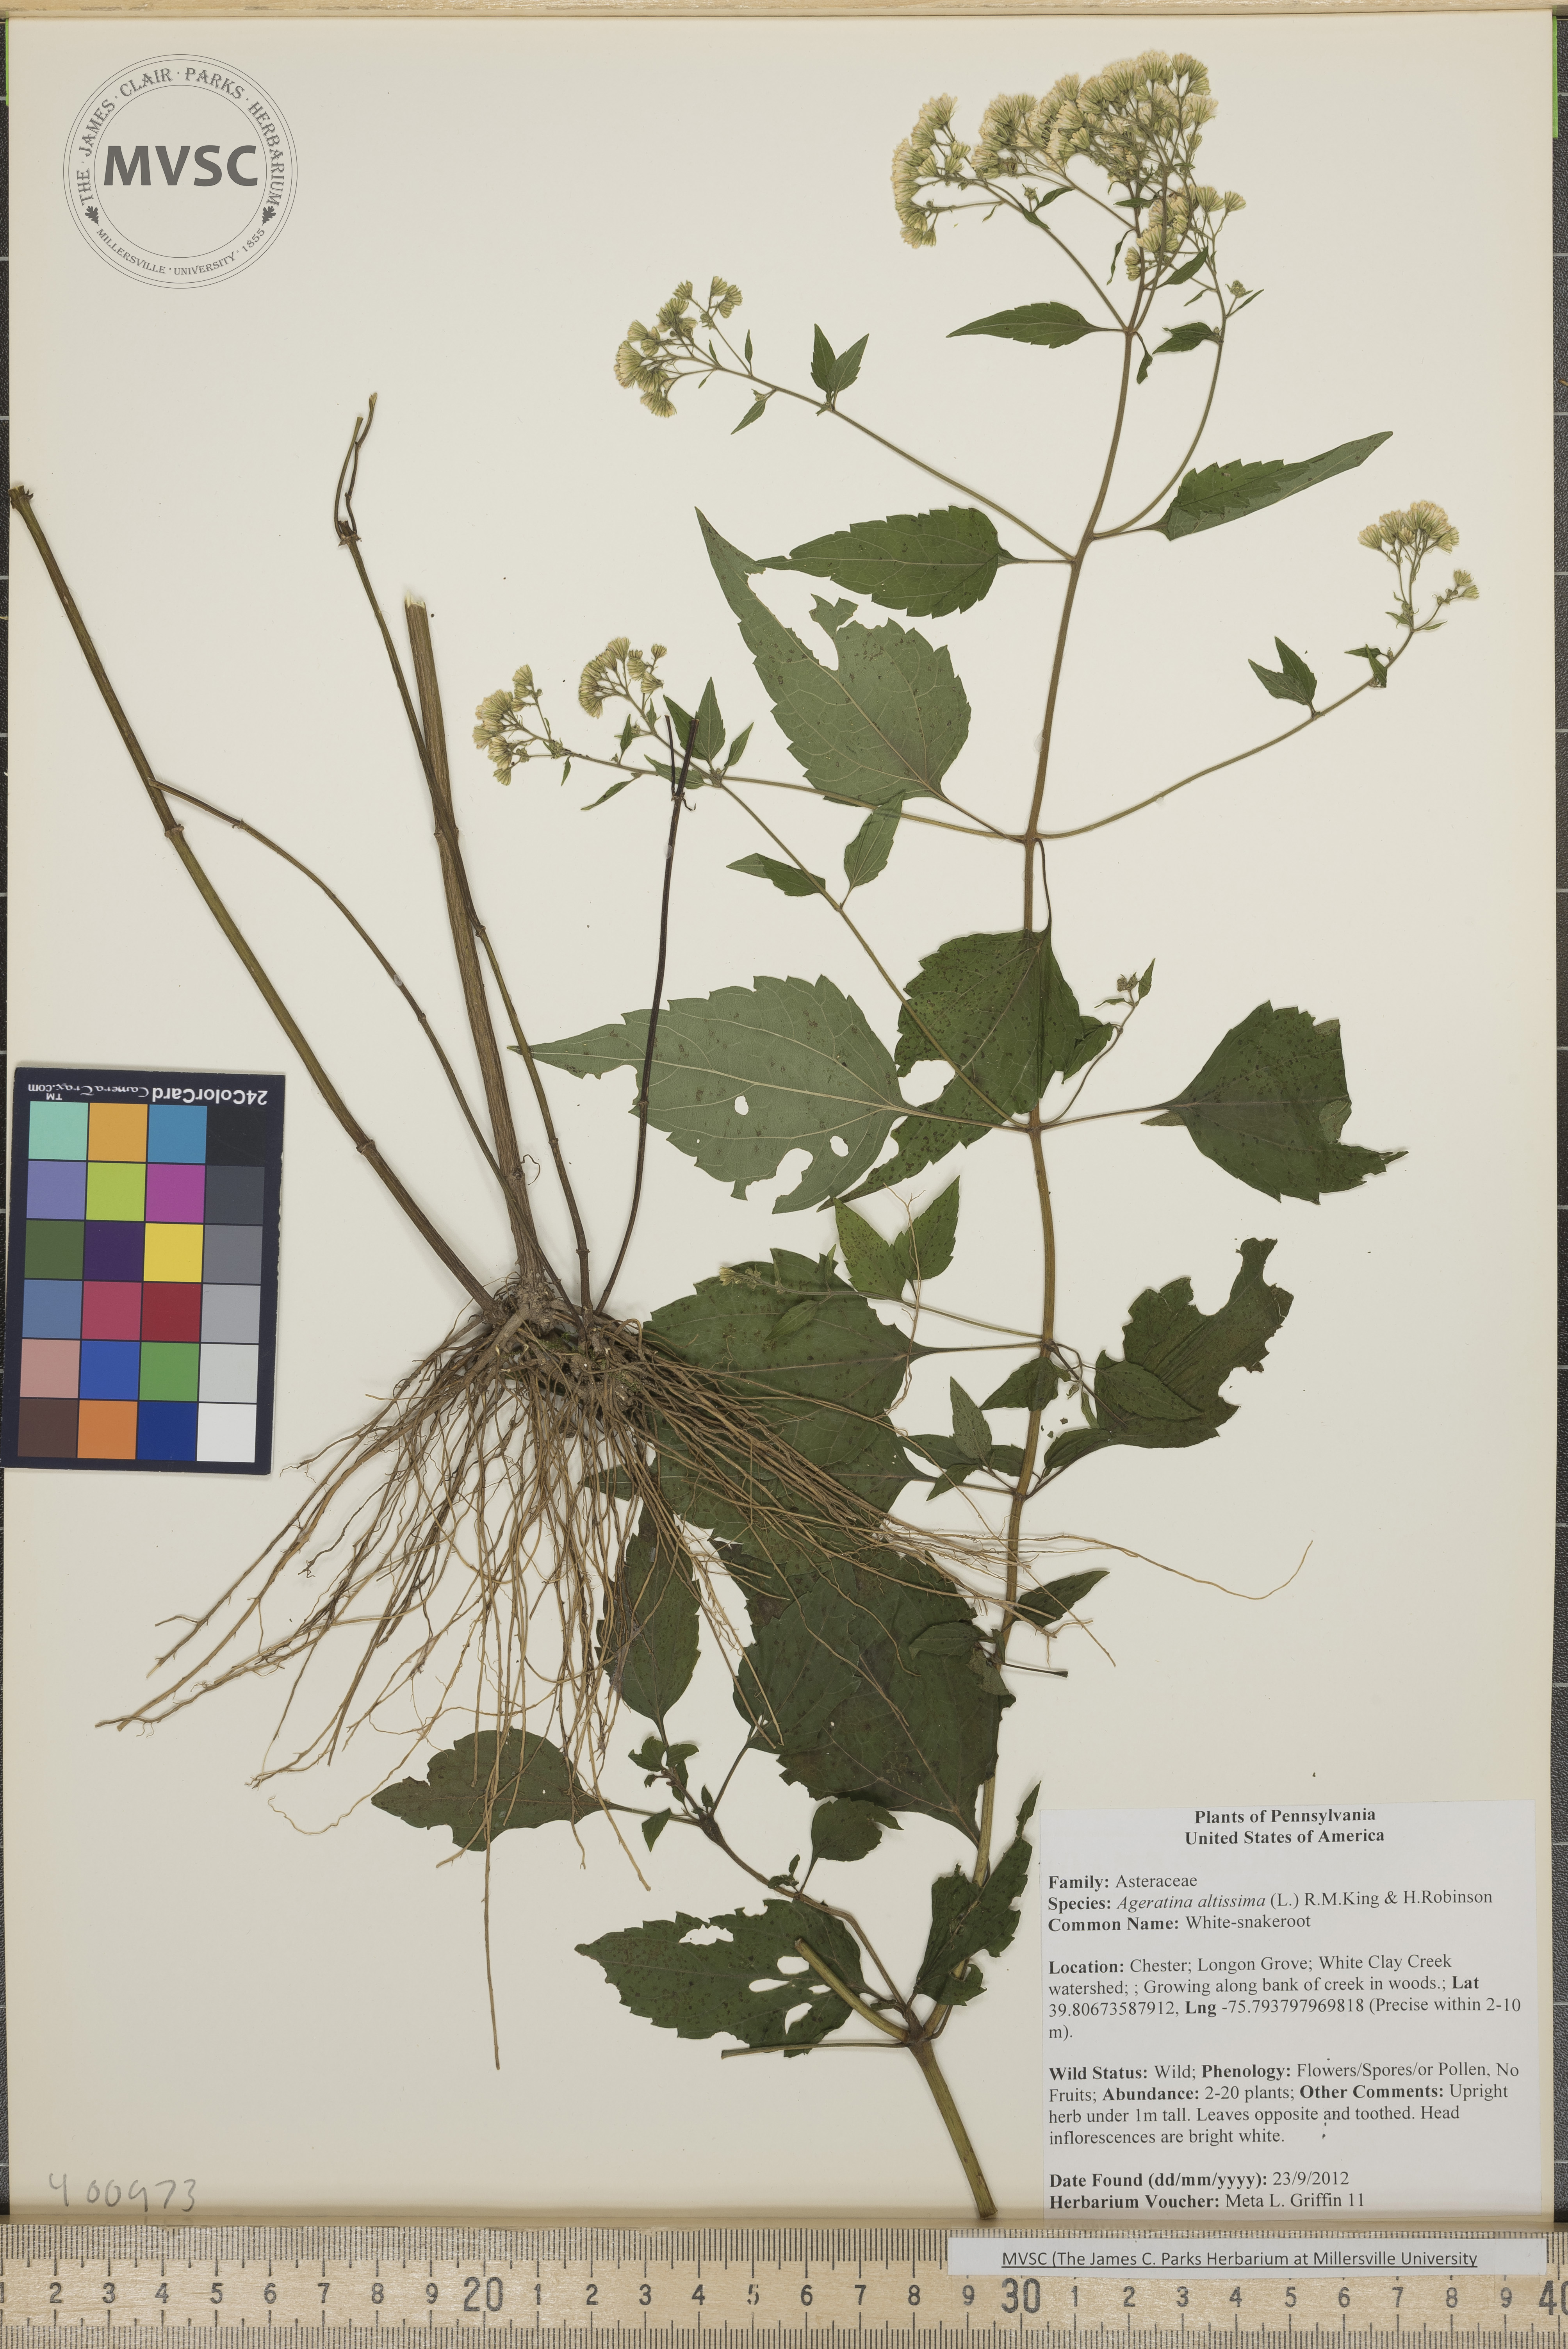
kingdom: Plantae
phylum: Tracheophyta
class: Magnoliopsida
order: Asterales
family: Asteraceae
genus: Ageratina
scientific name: Ageratina altissima
